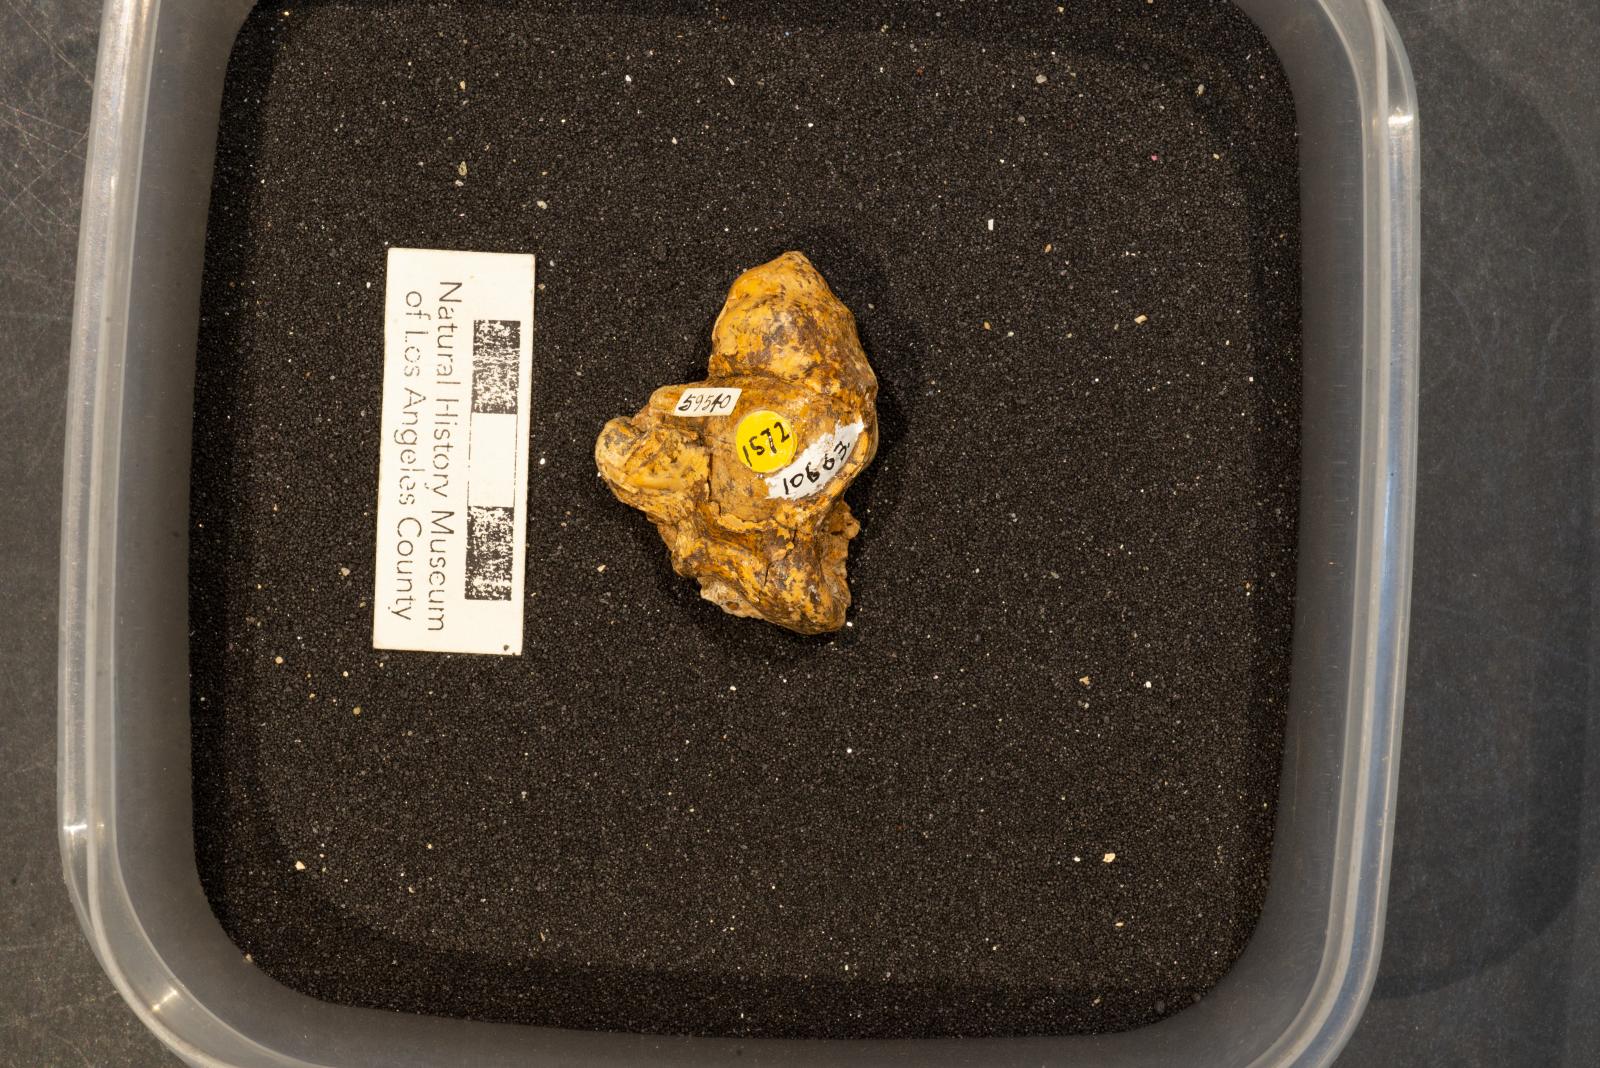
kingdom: Animalia
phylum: Mollusca
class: Gastropoda
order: Littorinimorpha
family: Aporrhaidae
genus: Pyktes
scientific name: Pyktes Pugnellus hamulus
